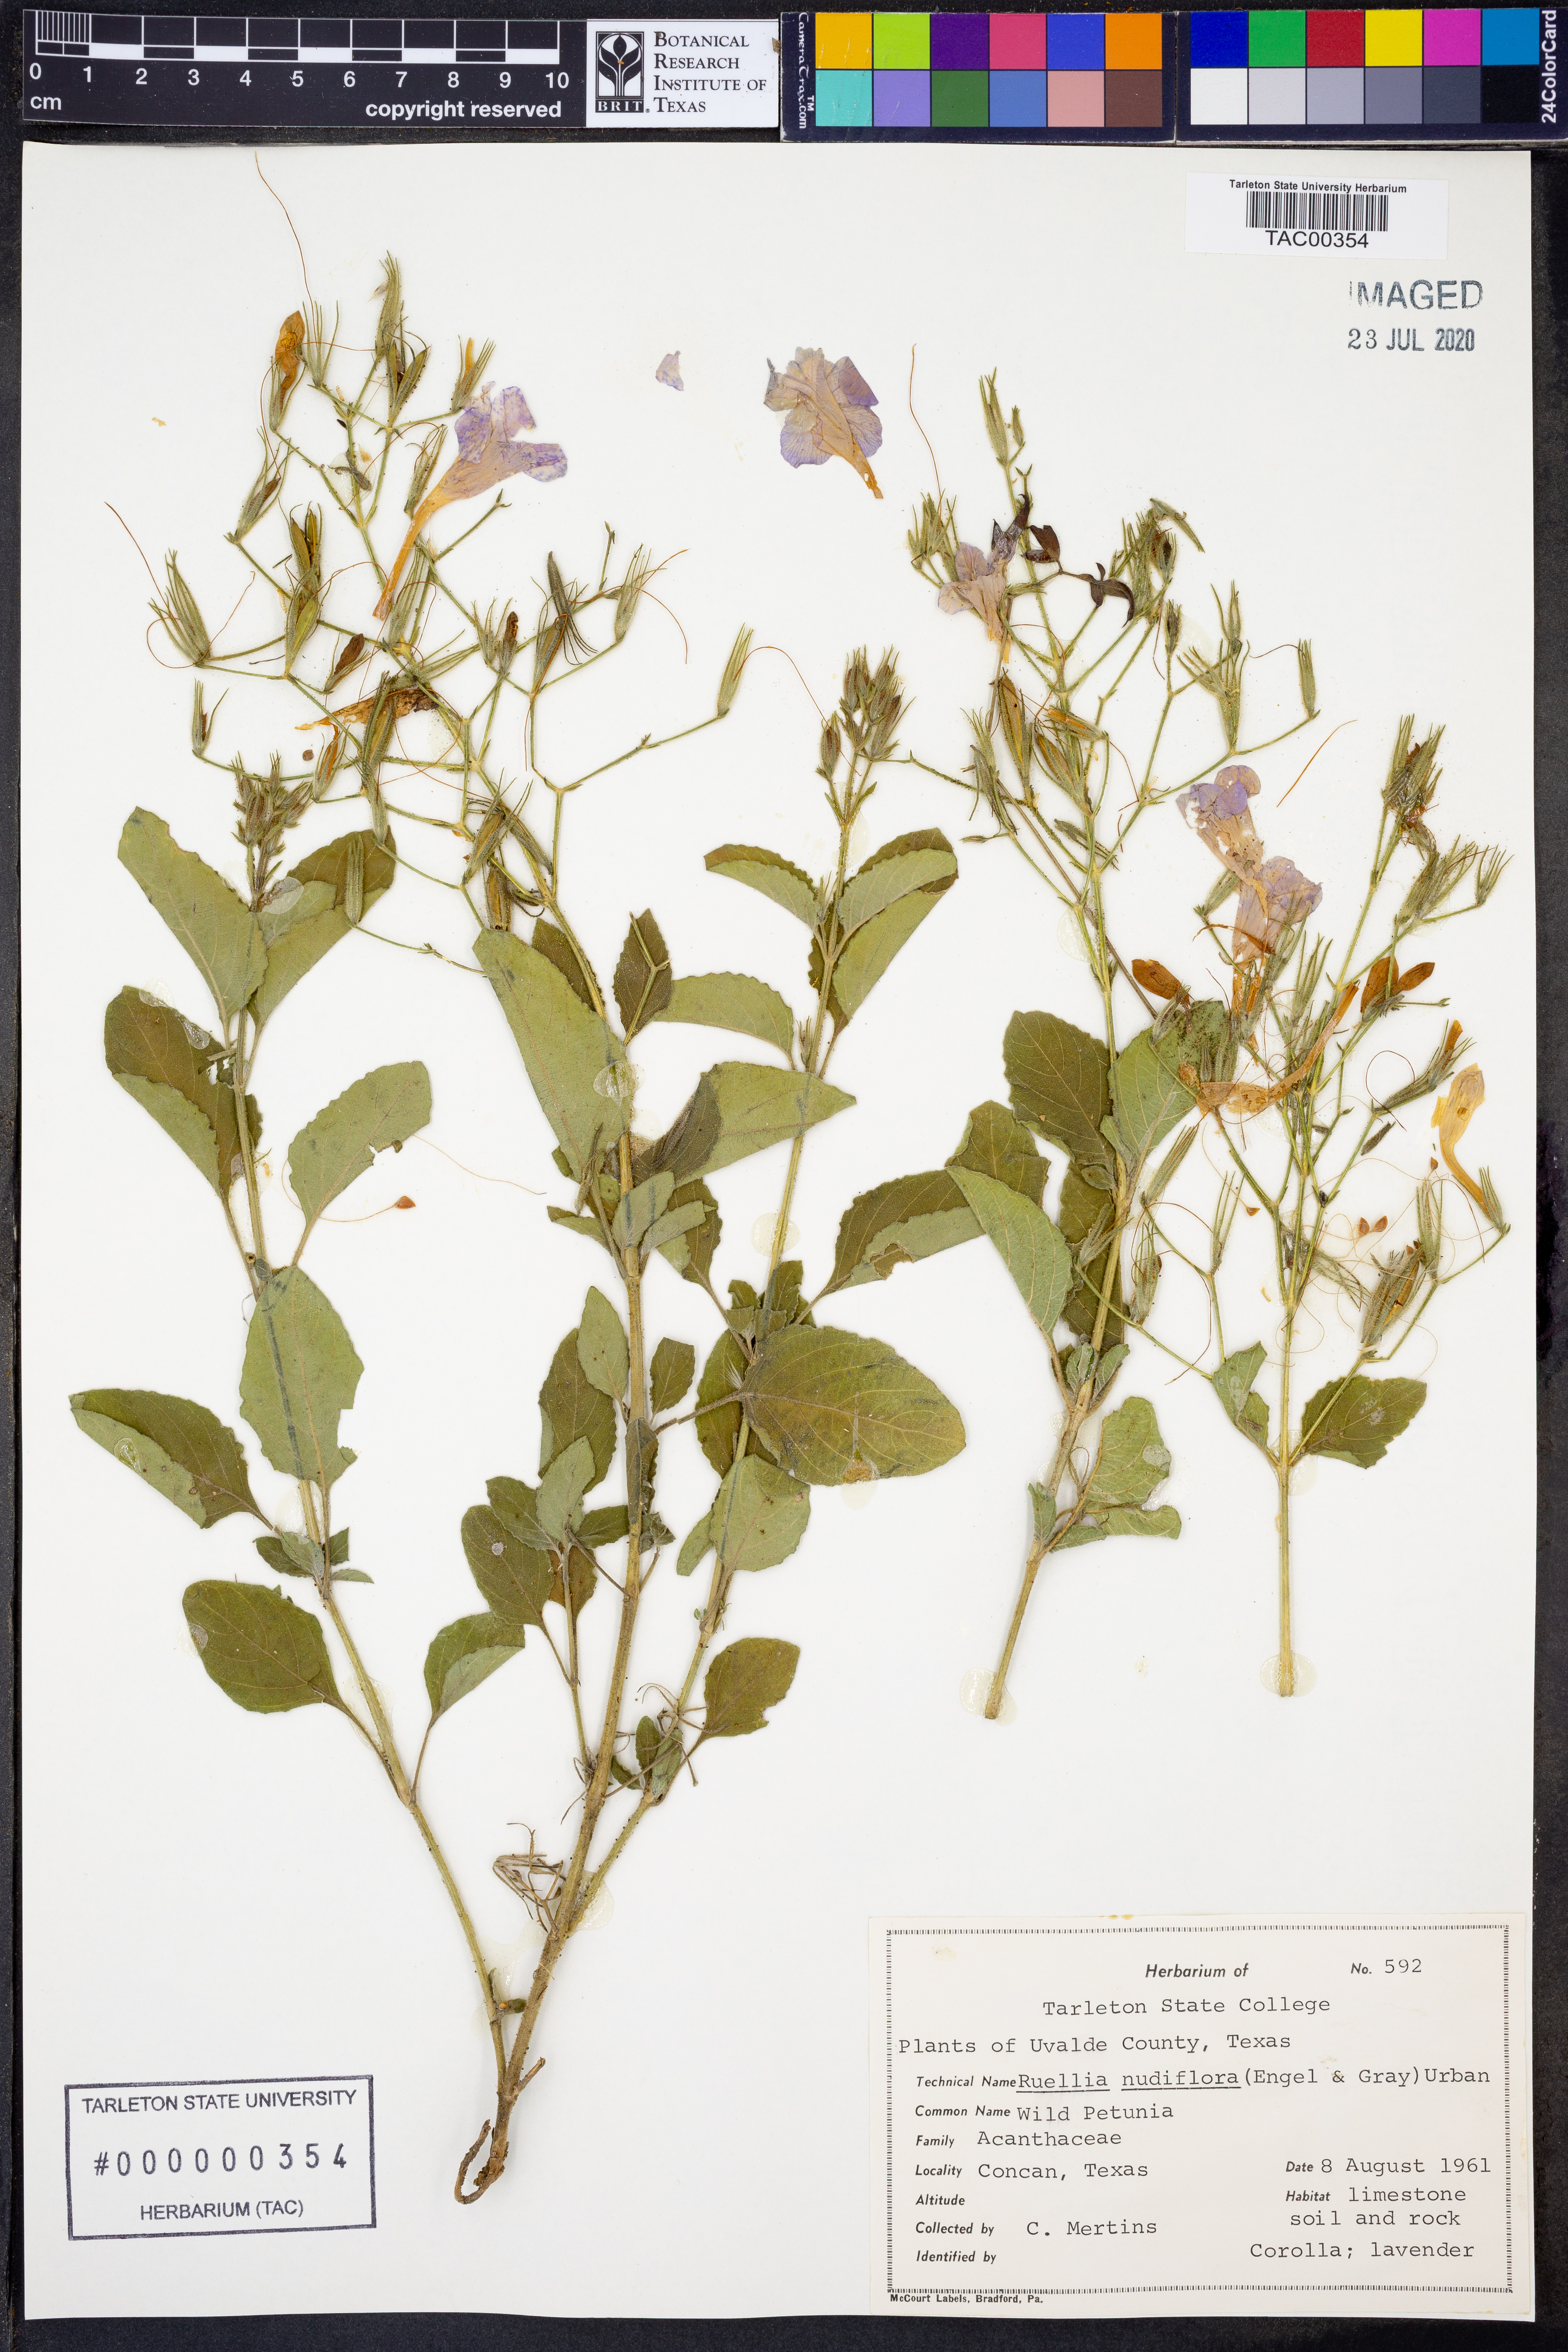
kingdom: Plantae
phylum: Tracheophyta
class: Magnoliopsida
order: Lamiales
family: Acanthaceae
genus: Ruellia
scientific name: Ruellia ciliatiflora
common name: Hairyflower wild petunia
